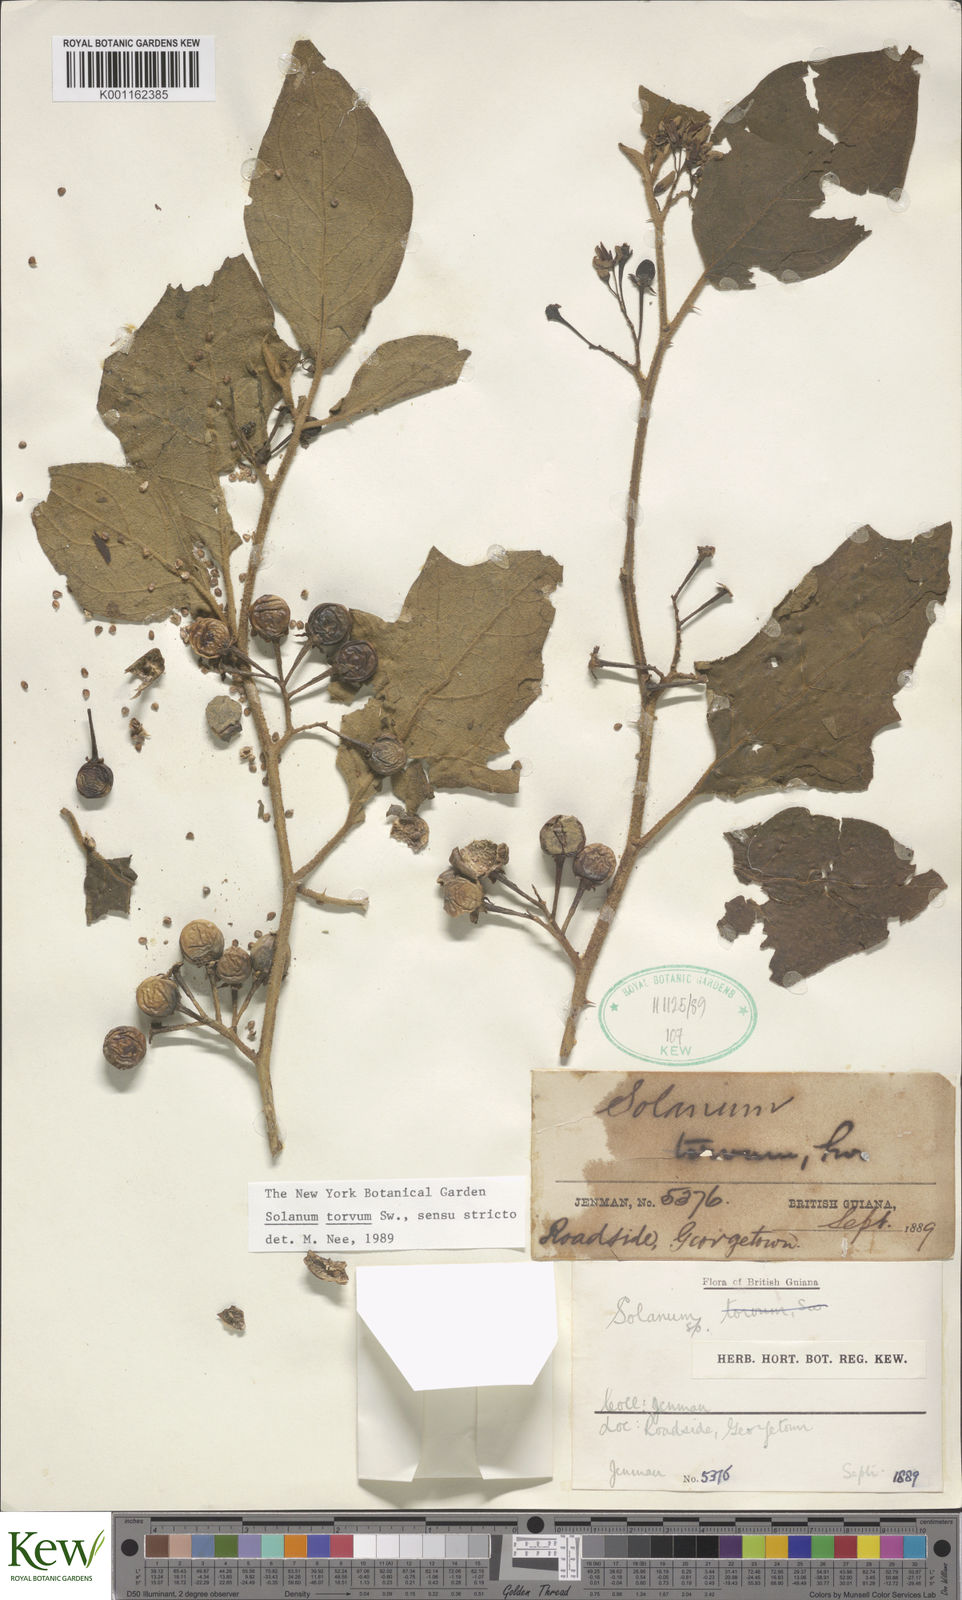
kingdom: Plantae
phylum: Tracheophyta
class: Magnoliopsida
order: Solanales
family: Solanaceae
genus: Solanum
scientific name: Solanum torvum
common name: Turkey berry
